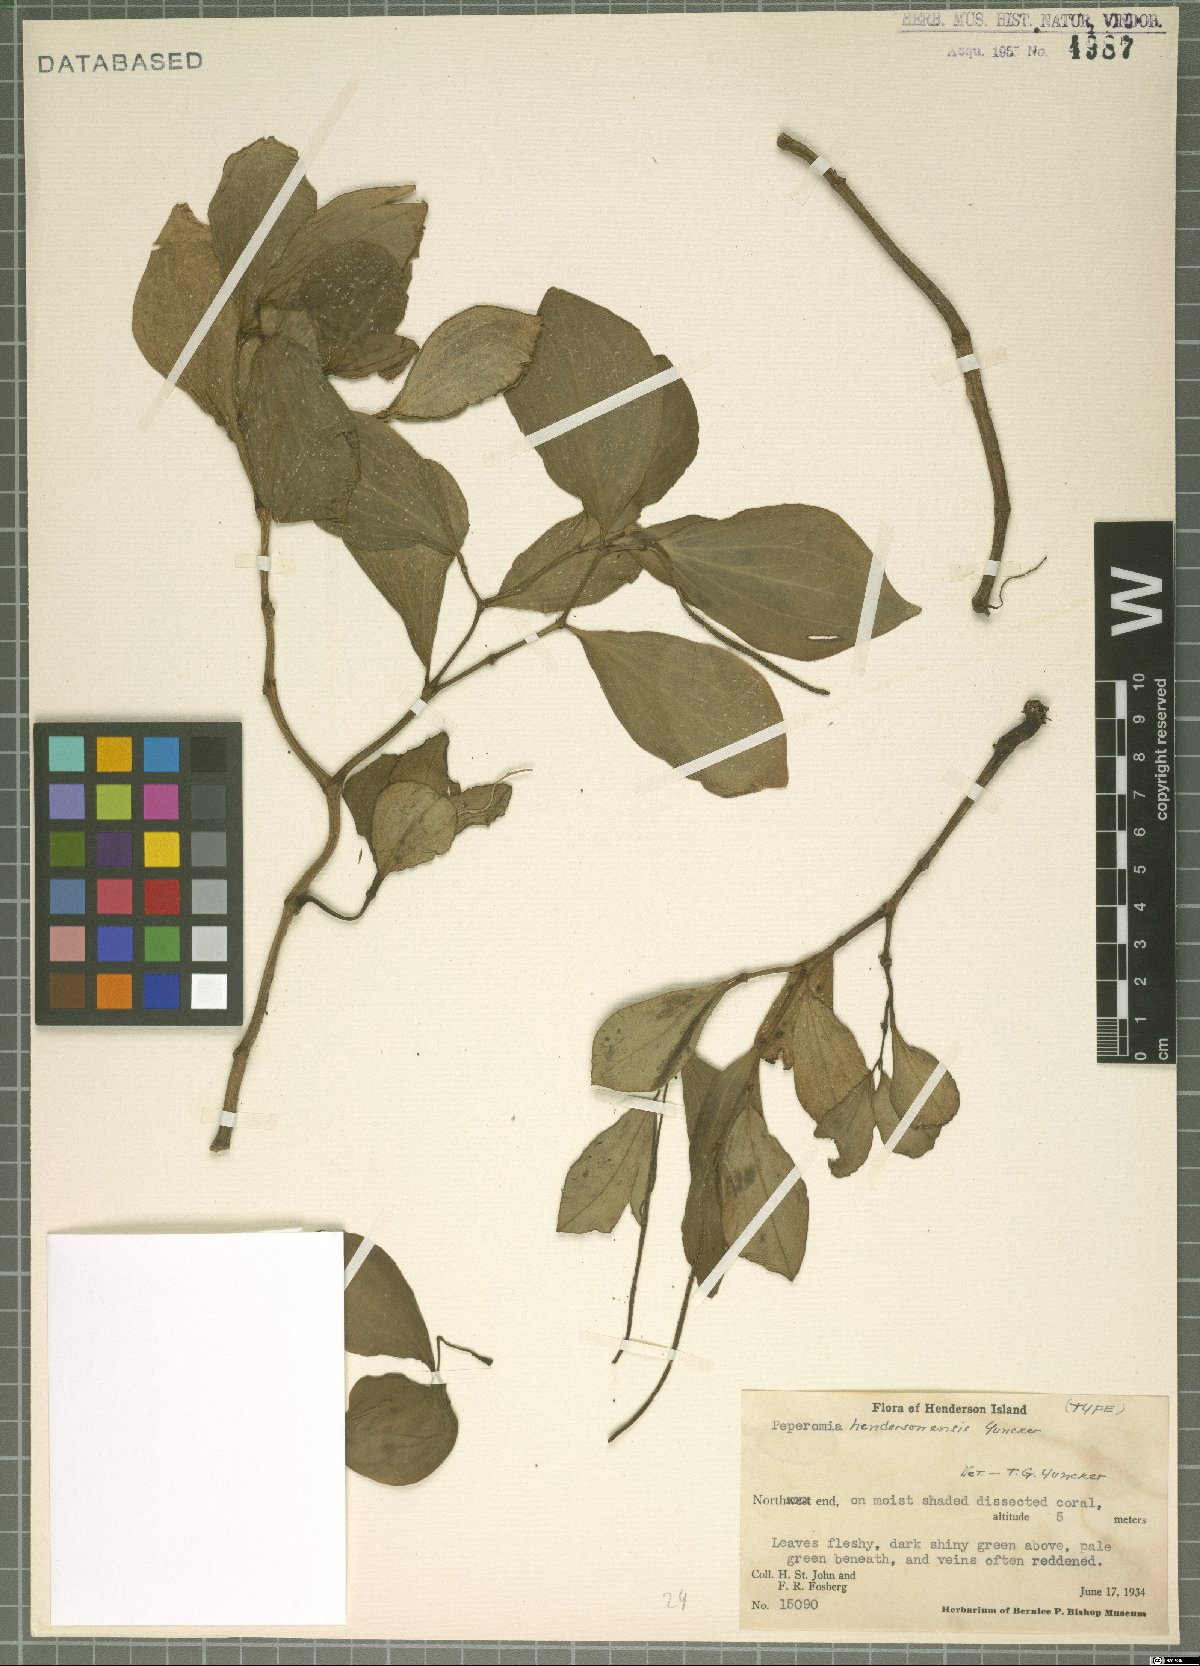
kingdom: Plantae
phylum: Tracheophyta
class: Magnoliopsida
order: Piperales
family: Piperaceae
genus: Peperomia
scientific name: Peperomia hendersonensis
